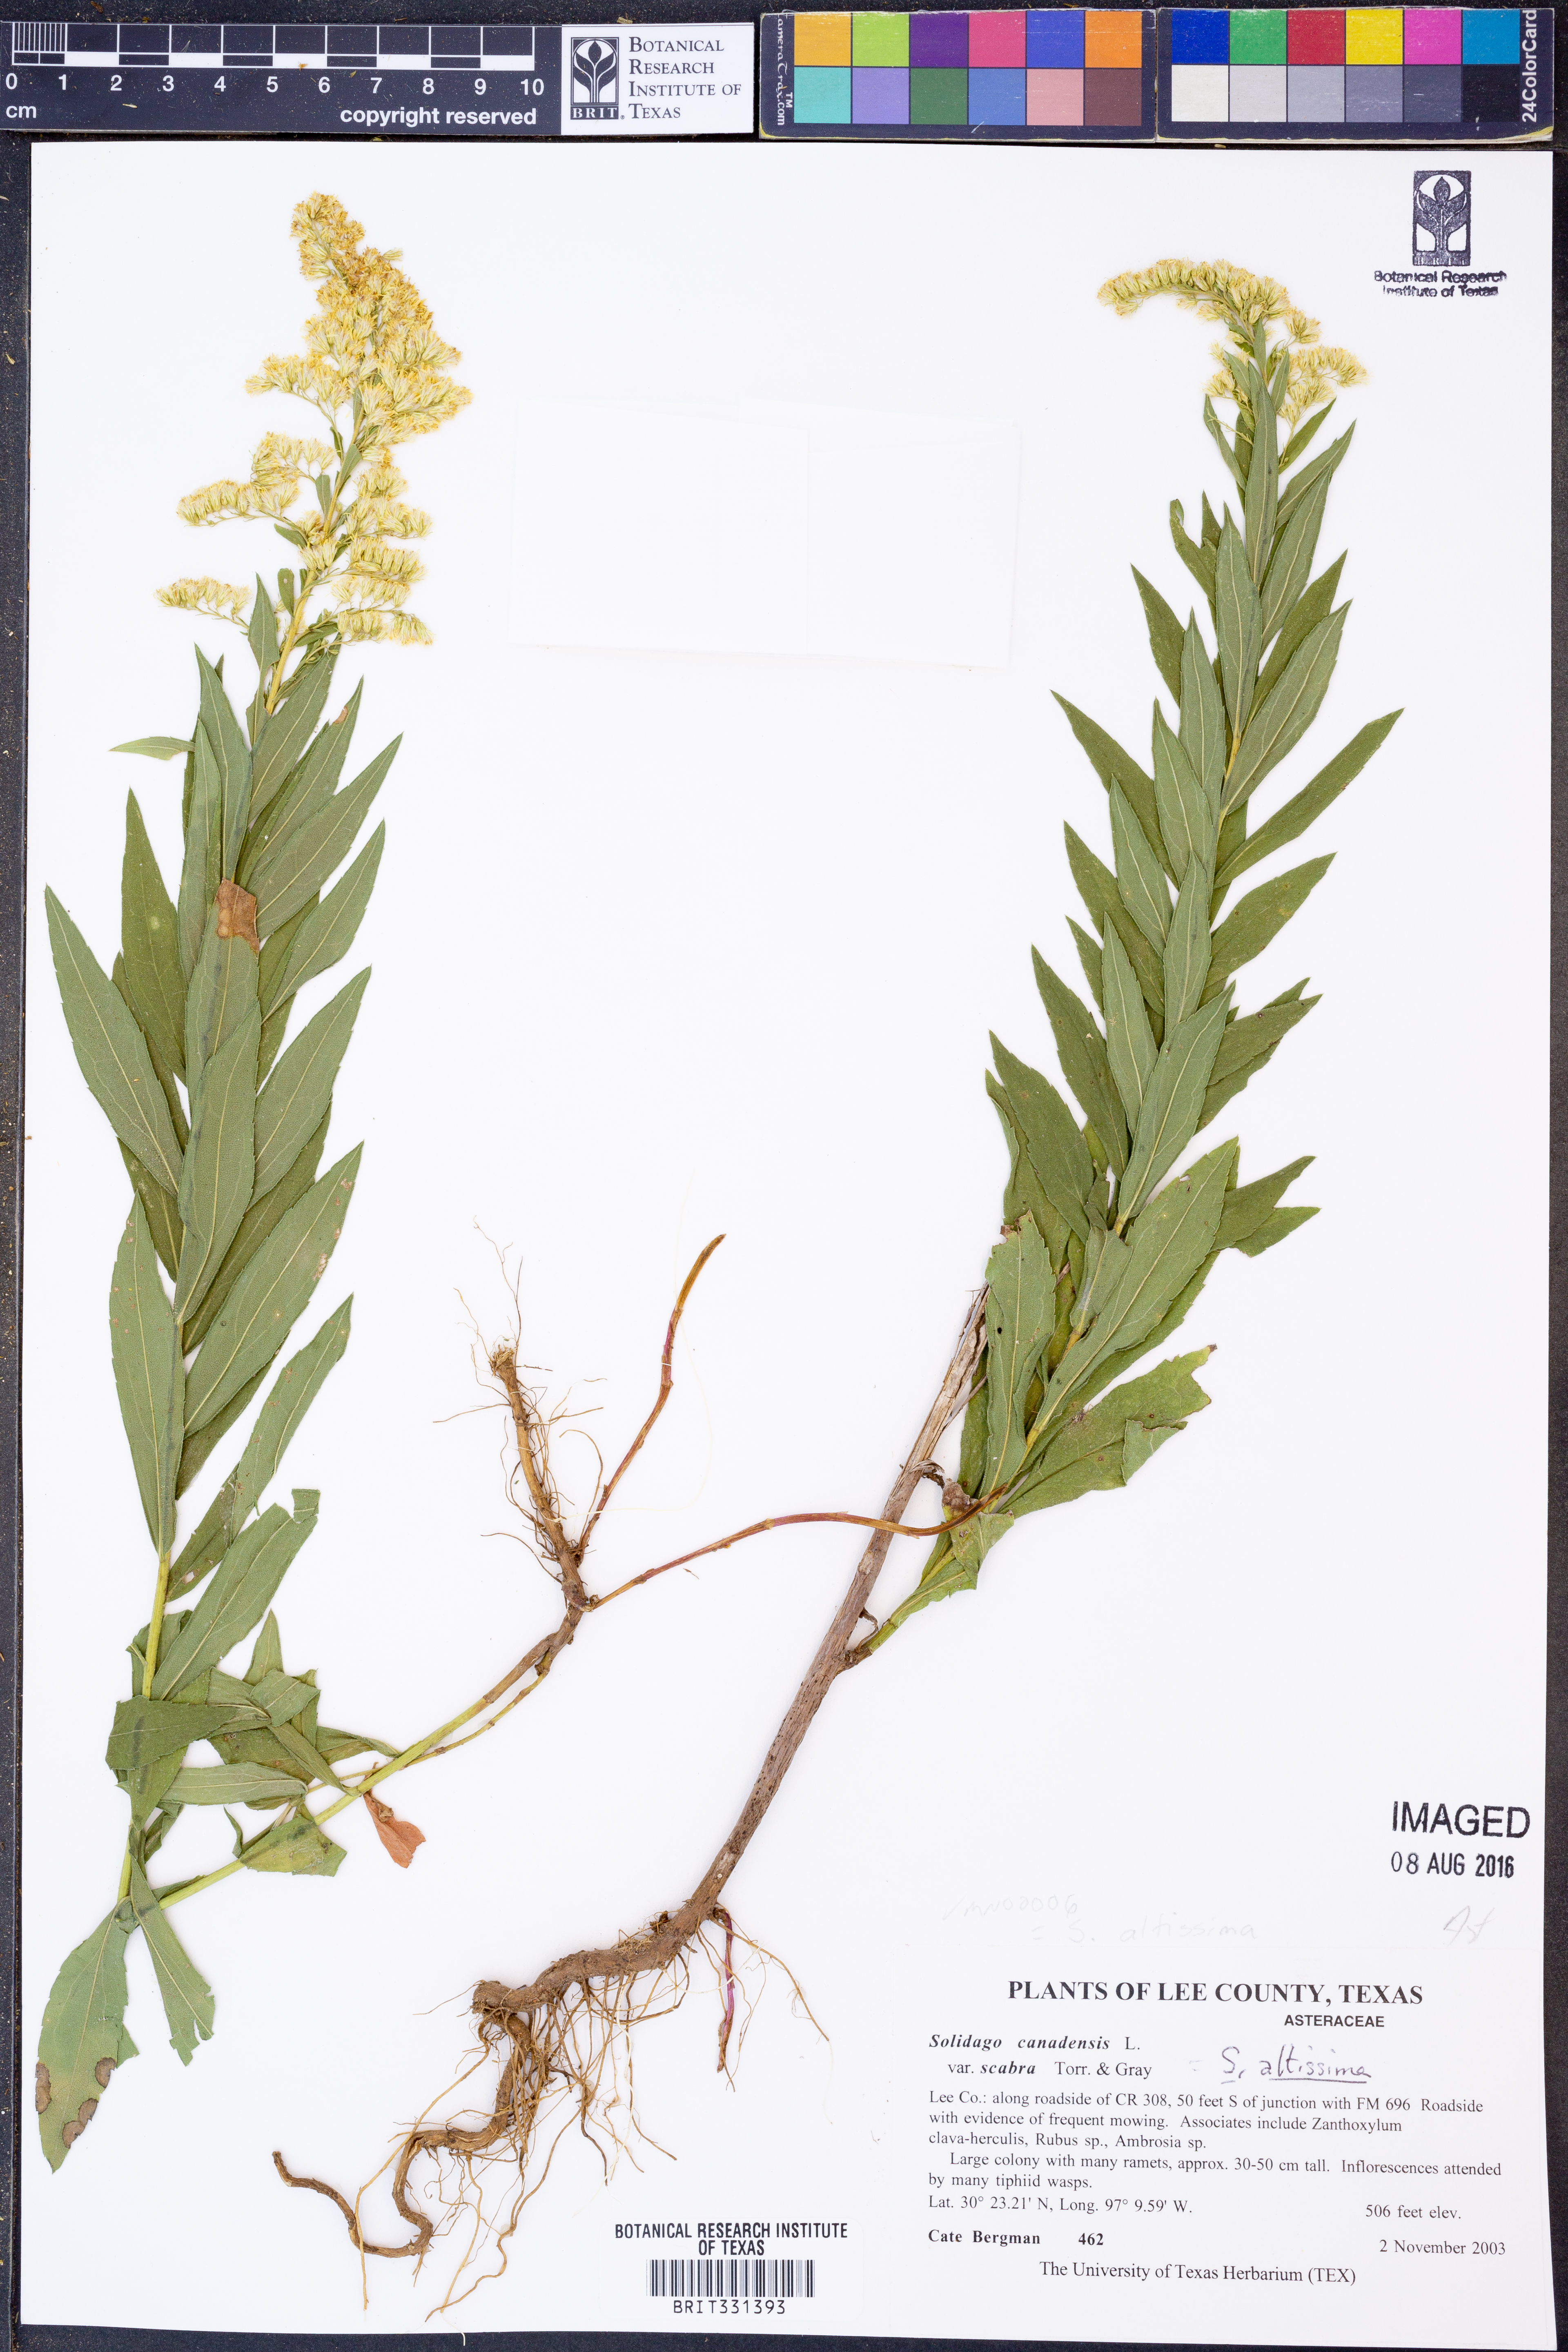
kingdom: Plantae
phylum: Tracheophyta
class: Magnoliopsida
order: Asterales
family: Asteraceae
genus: Solidago
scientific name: Solidago altissima
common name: Late goldenrod
